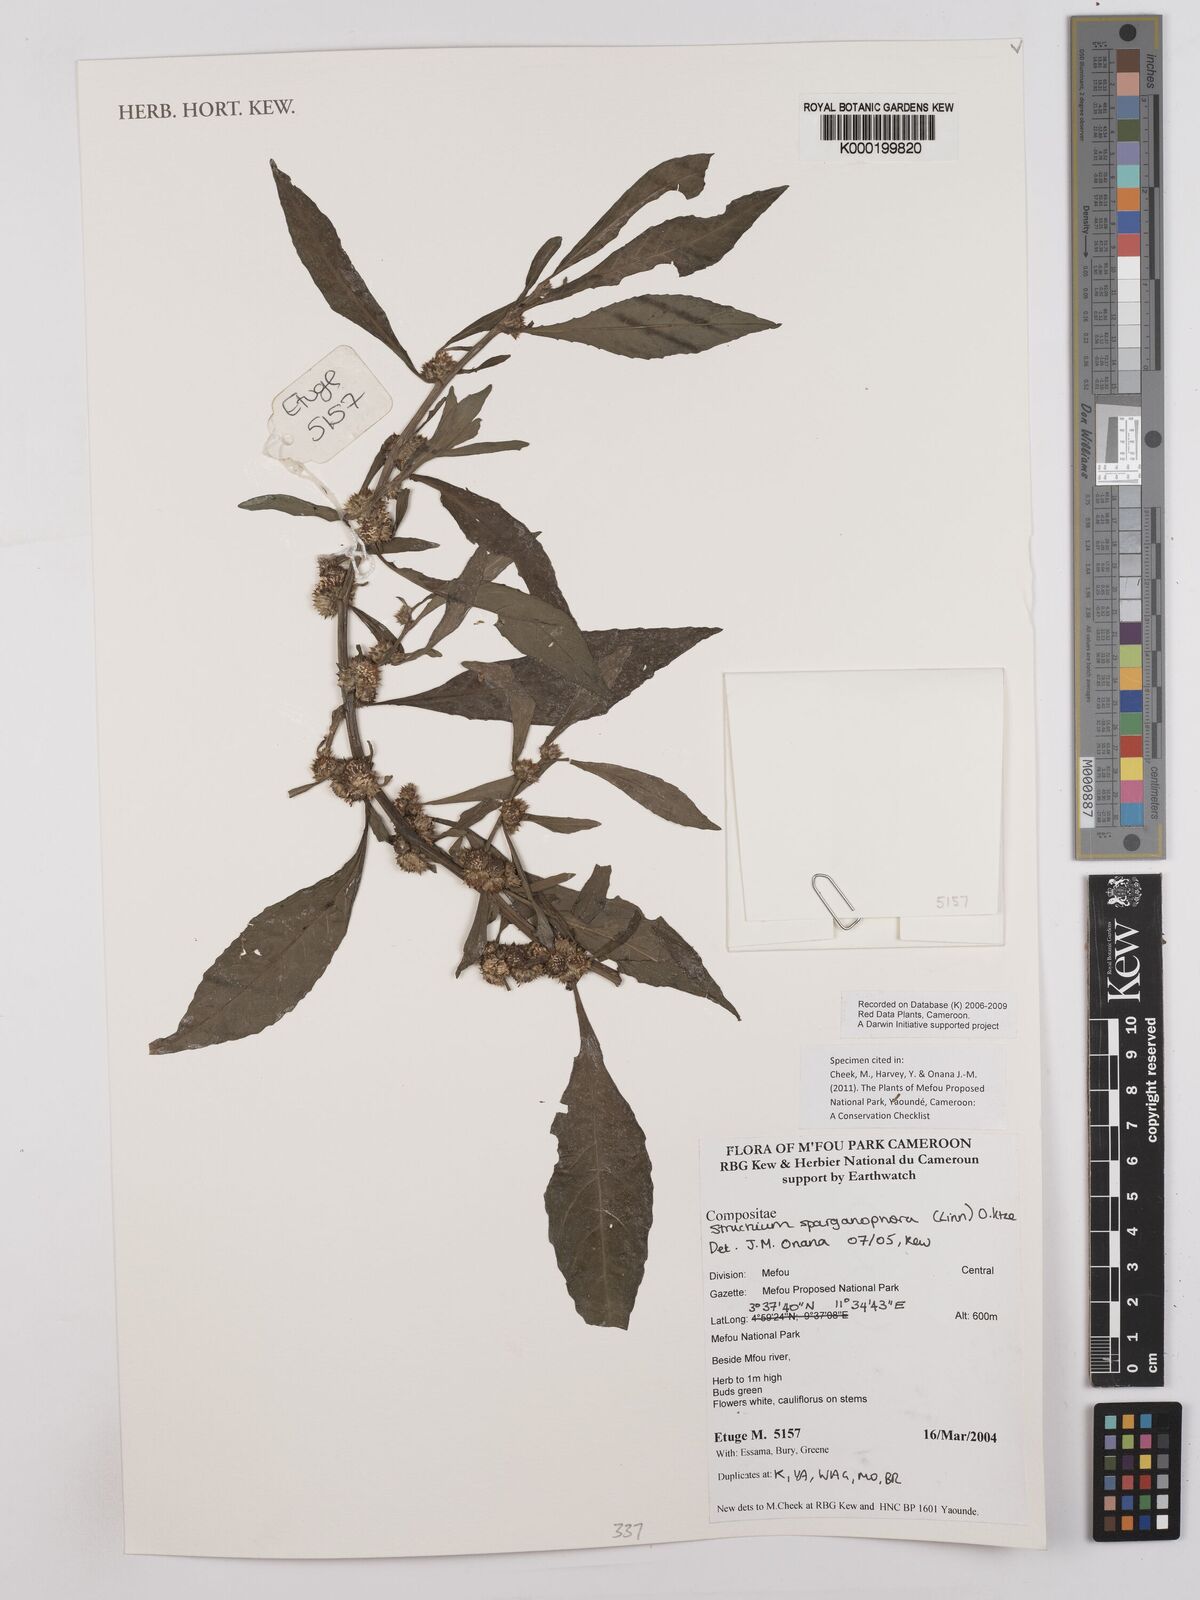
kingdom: Plantae
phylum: Tracheophyta
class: Magnoliopsida
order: Asterales
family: Asteraceae
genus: Struchium
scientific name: Struchium sparganophorum
